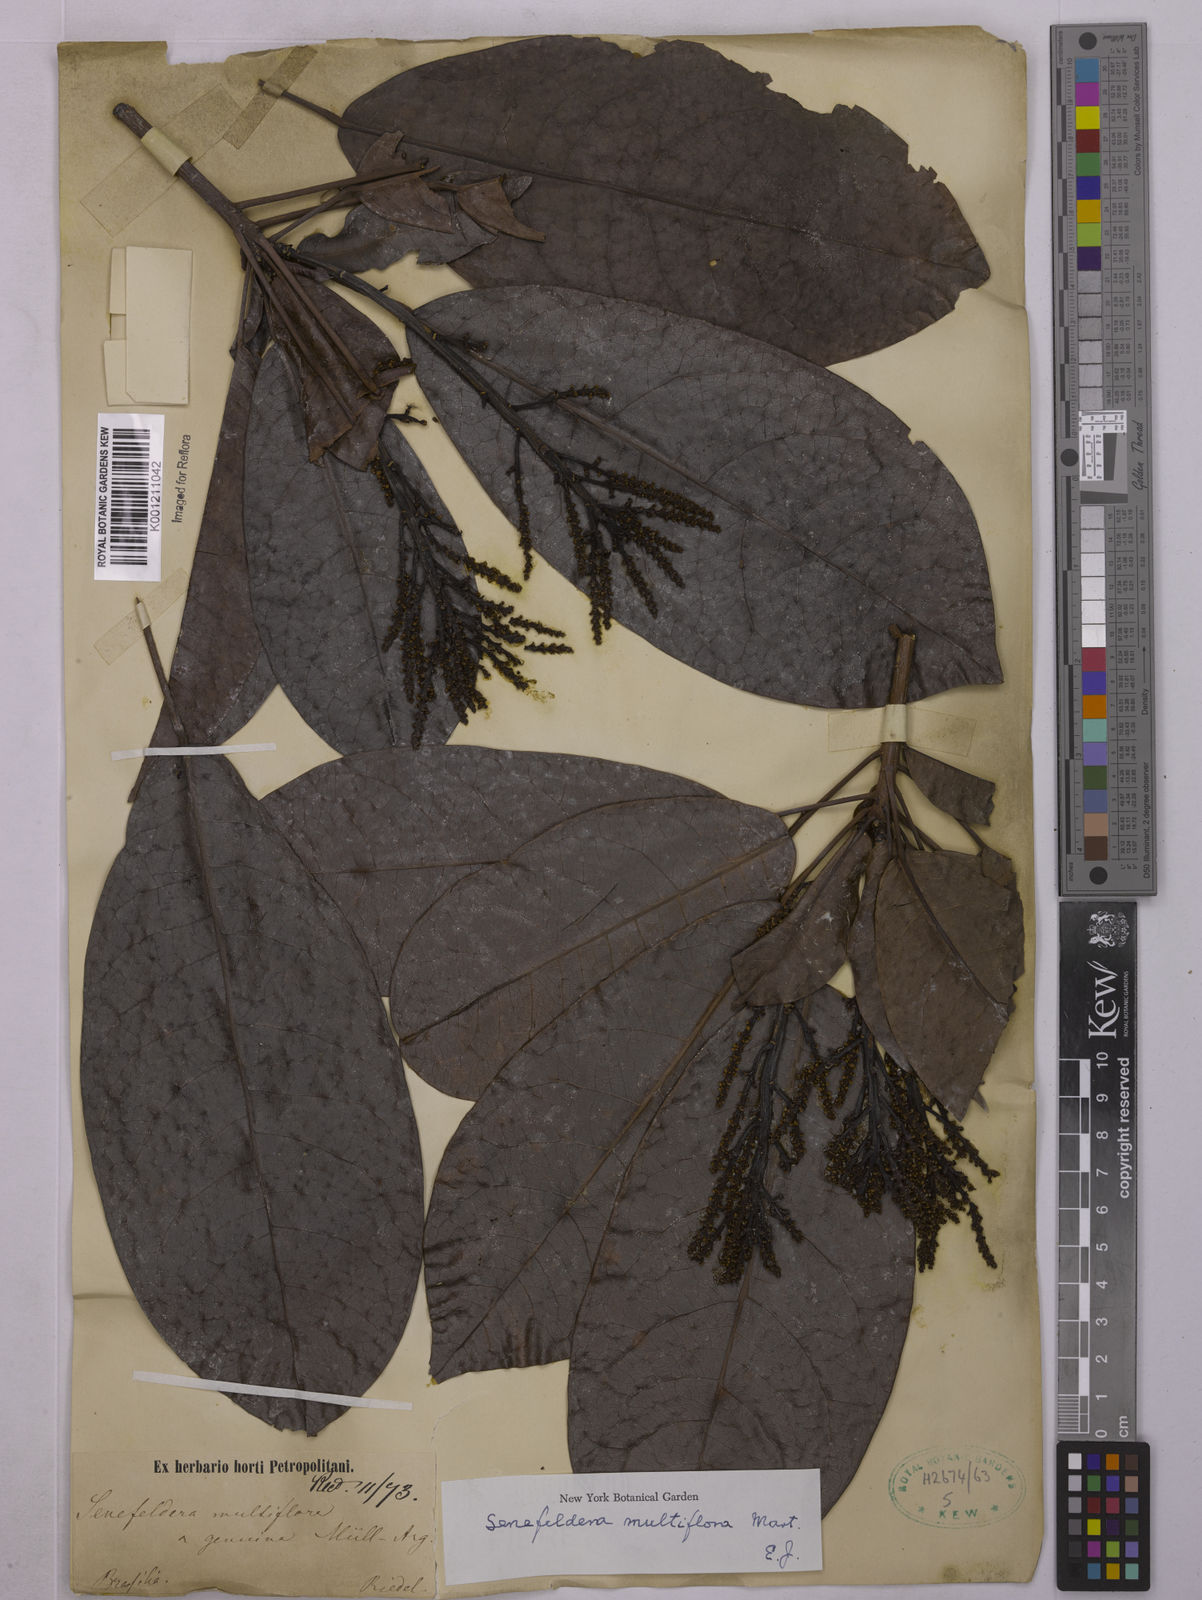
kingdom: Plantae
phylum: Tracheophyta
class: Magnoliopsida
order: Malpighiales
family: Euphorbiaceae
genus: Senefeldera
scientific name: Senefeldera verticillata
